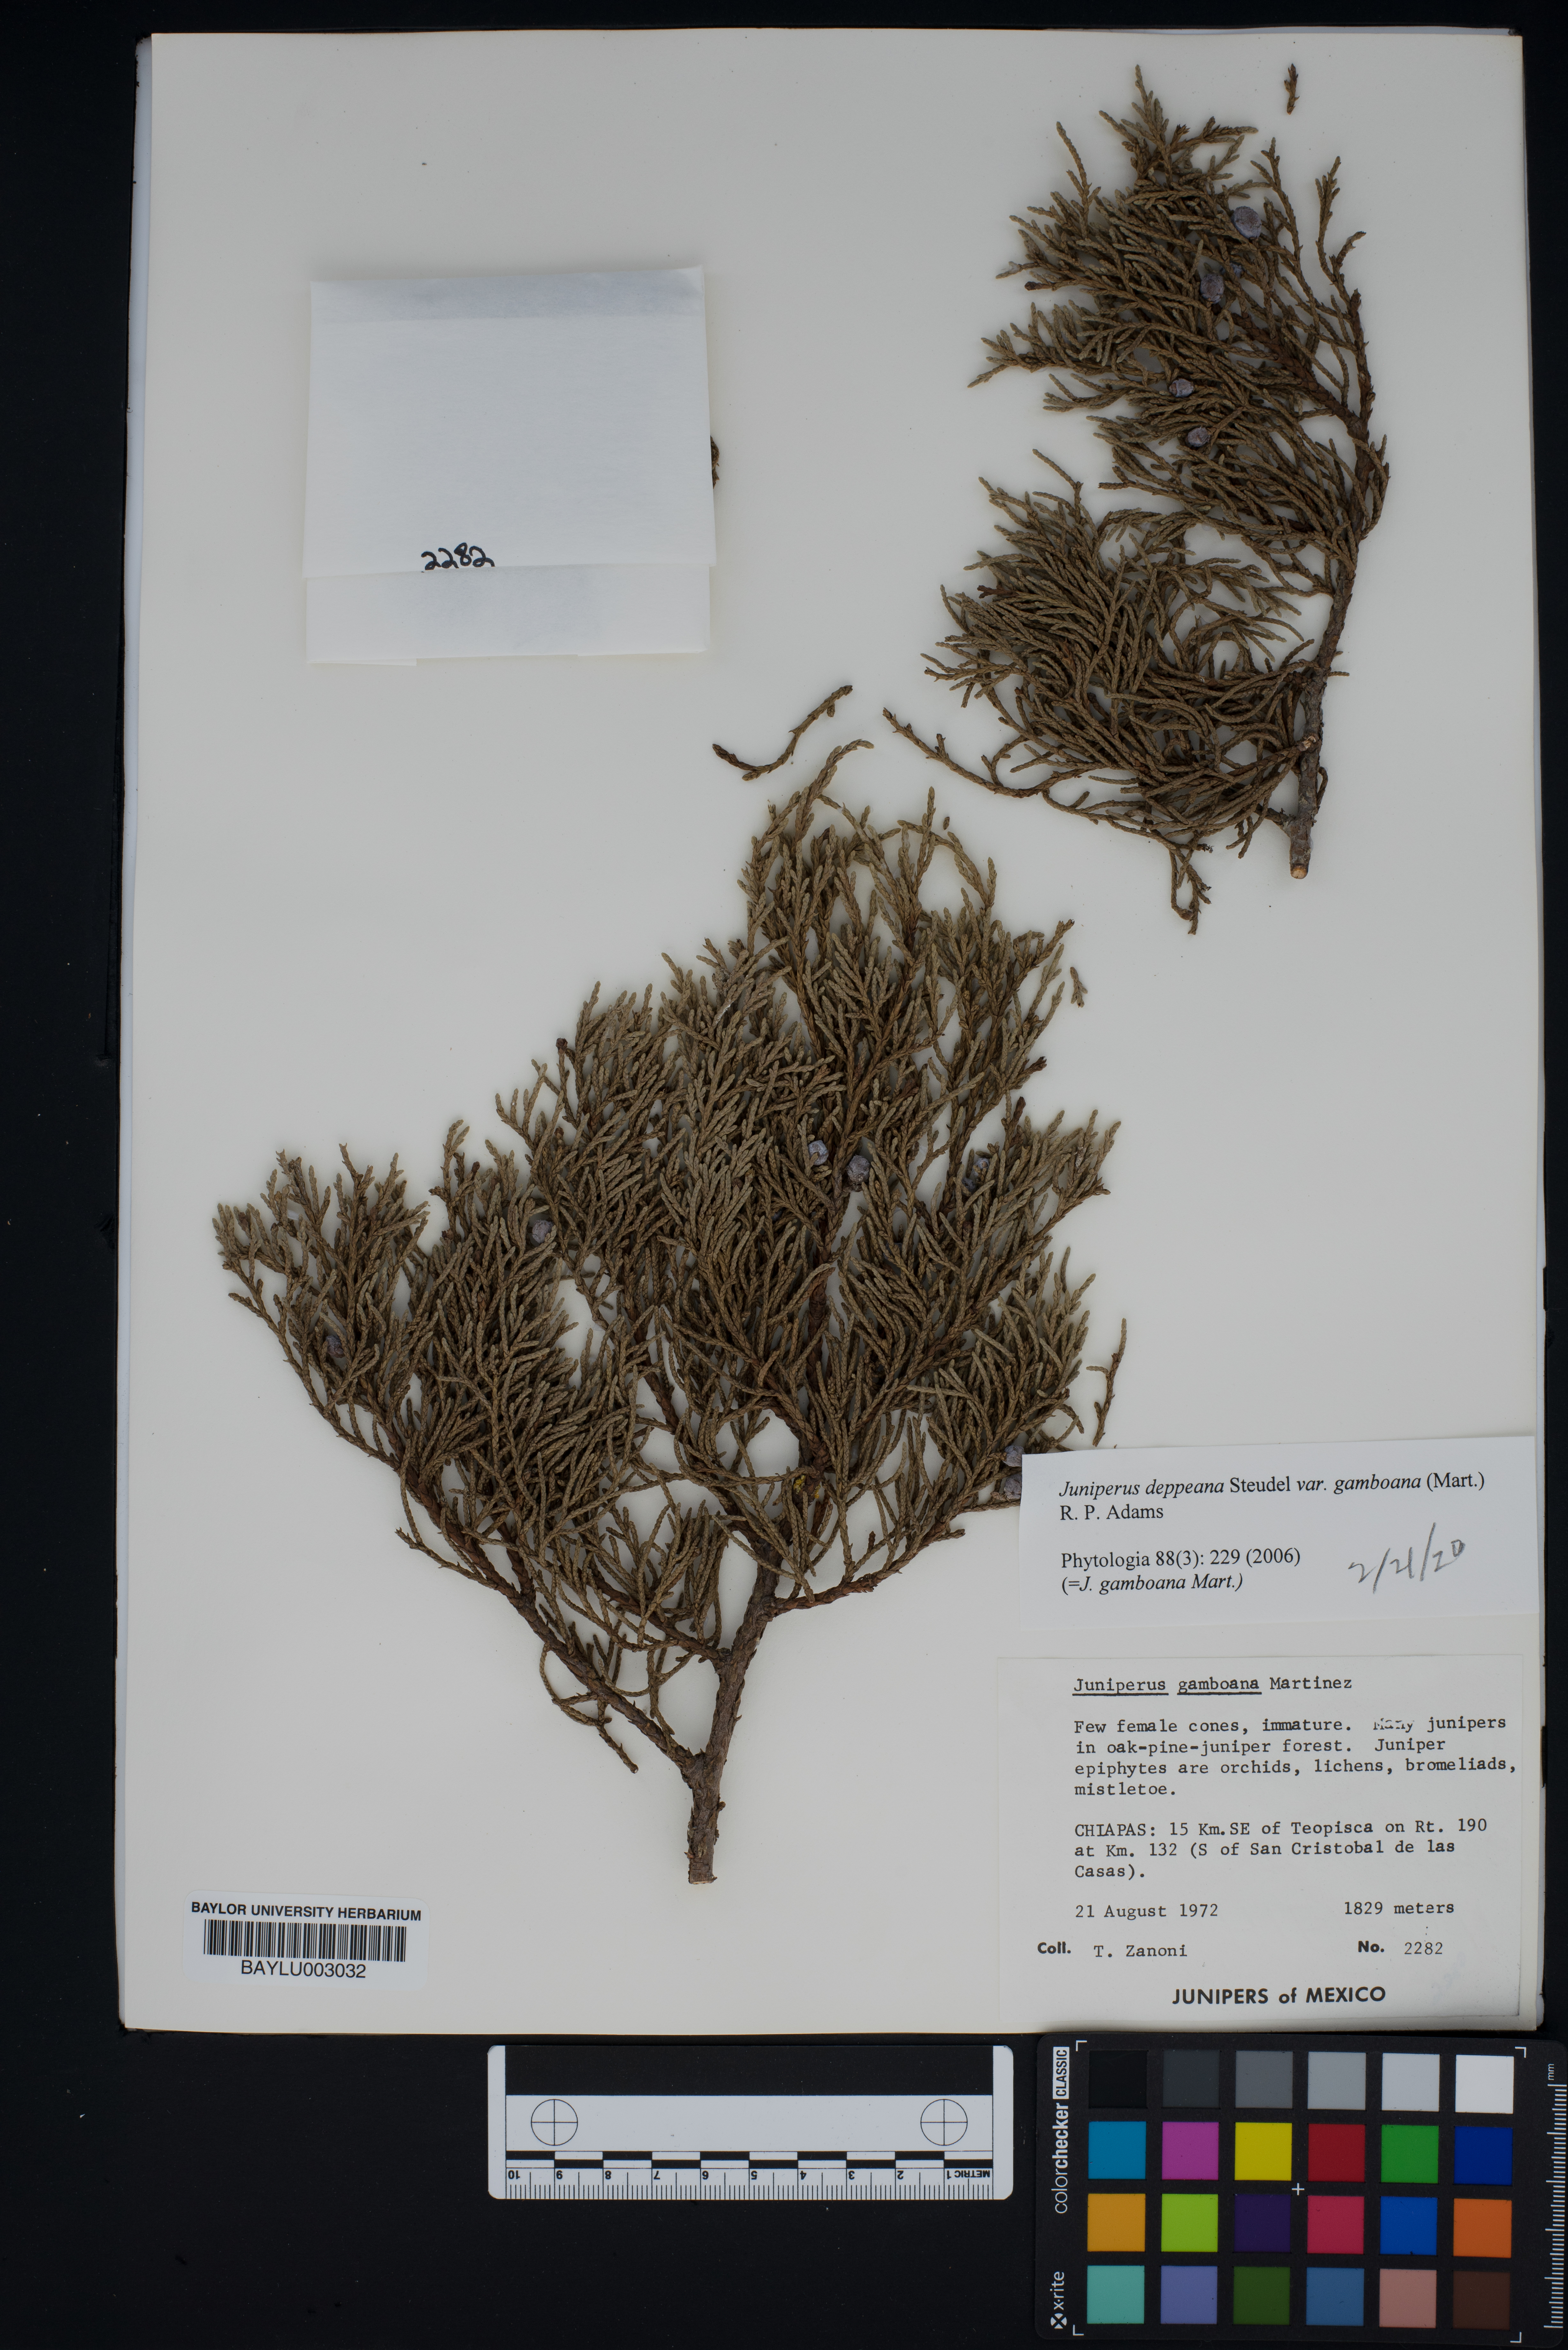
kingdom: Plantae
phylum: Tracheophyta
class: Pinopsida
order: Pinales
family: Cupressaceae
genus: Juniperus
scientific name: Juniperus gamboana
